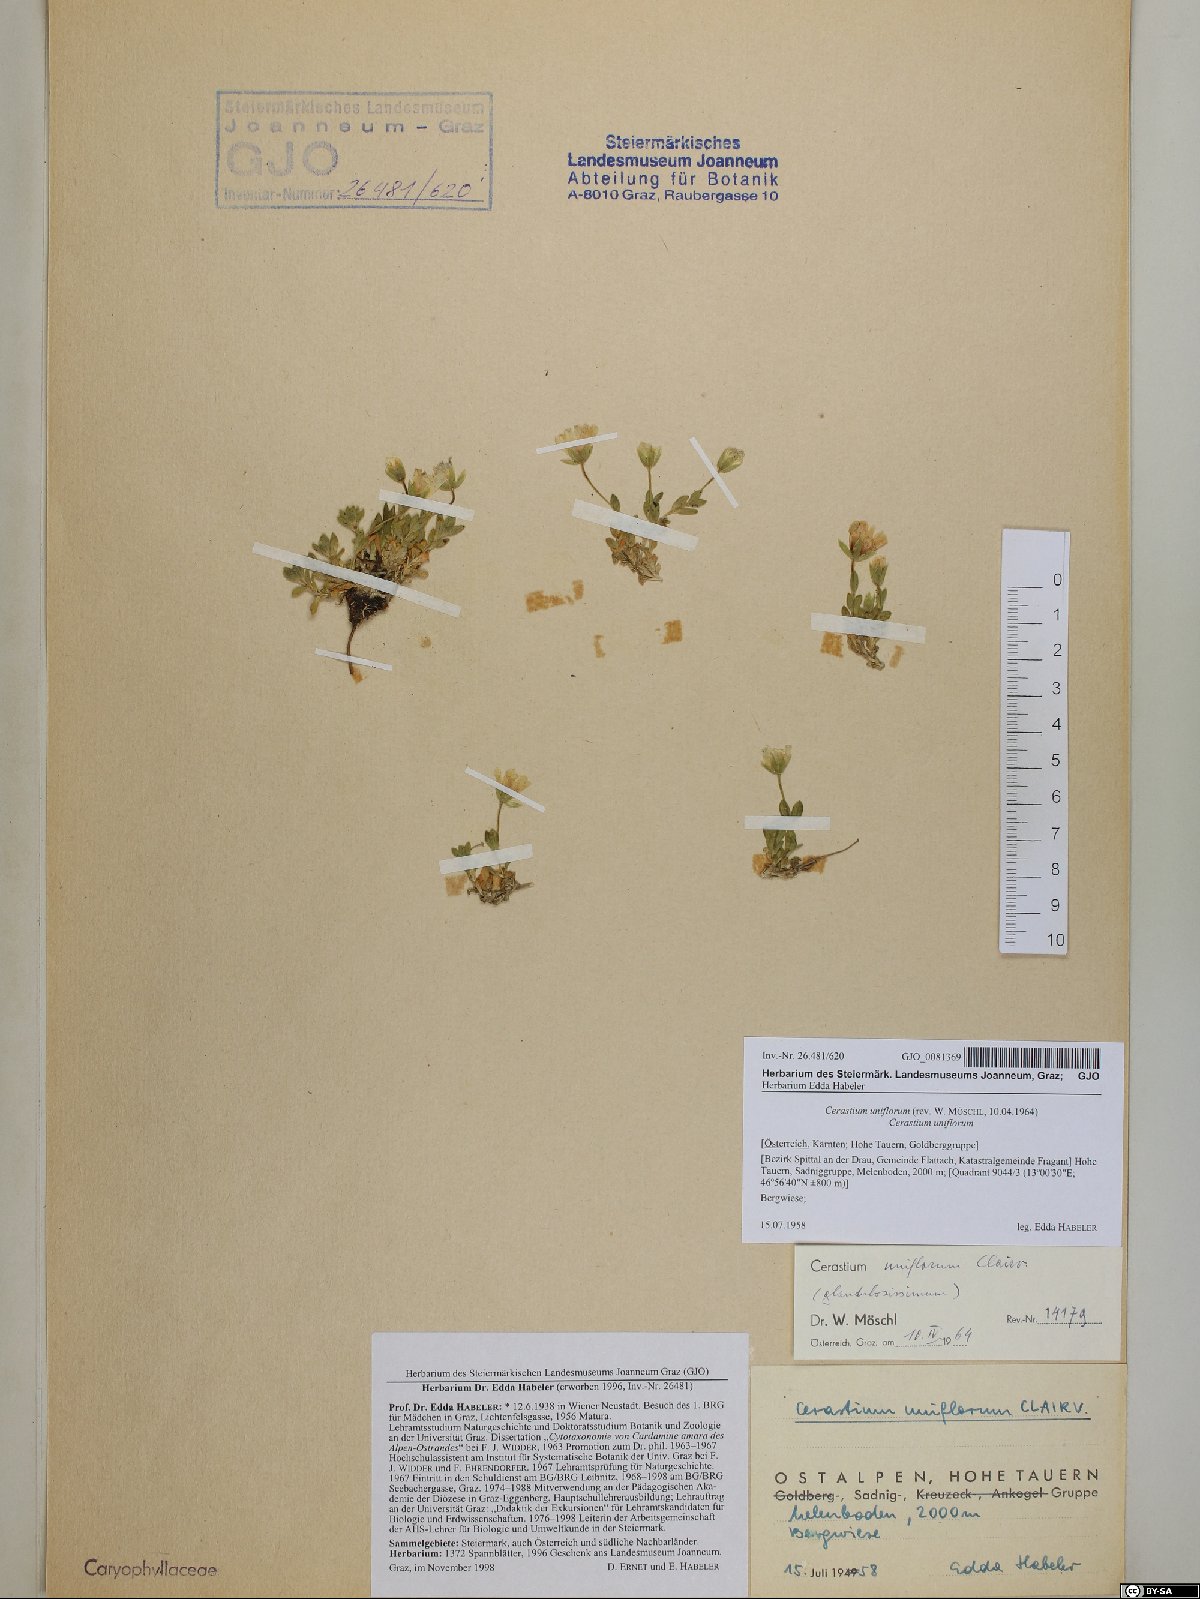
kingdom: Plantae
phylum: Tracheophyta
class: Magnoliopsida
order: Caryophyllales
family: Caryophyllaceae
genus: Cerastium
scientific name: Cerastium uniflorum
